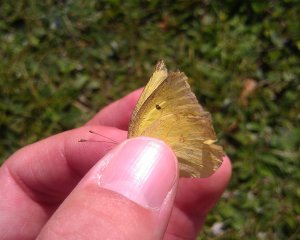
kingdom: Animalia
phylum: Arthropoda
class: Insecta
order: Lepidoptera
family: Pieridae
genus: Colias
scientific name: Colias philodice
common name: Clouded Sulphur
